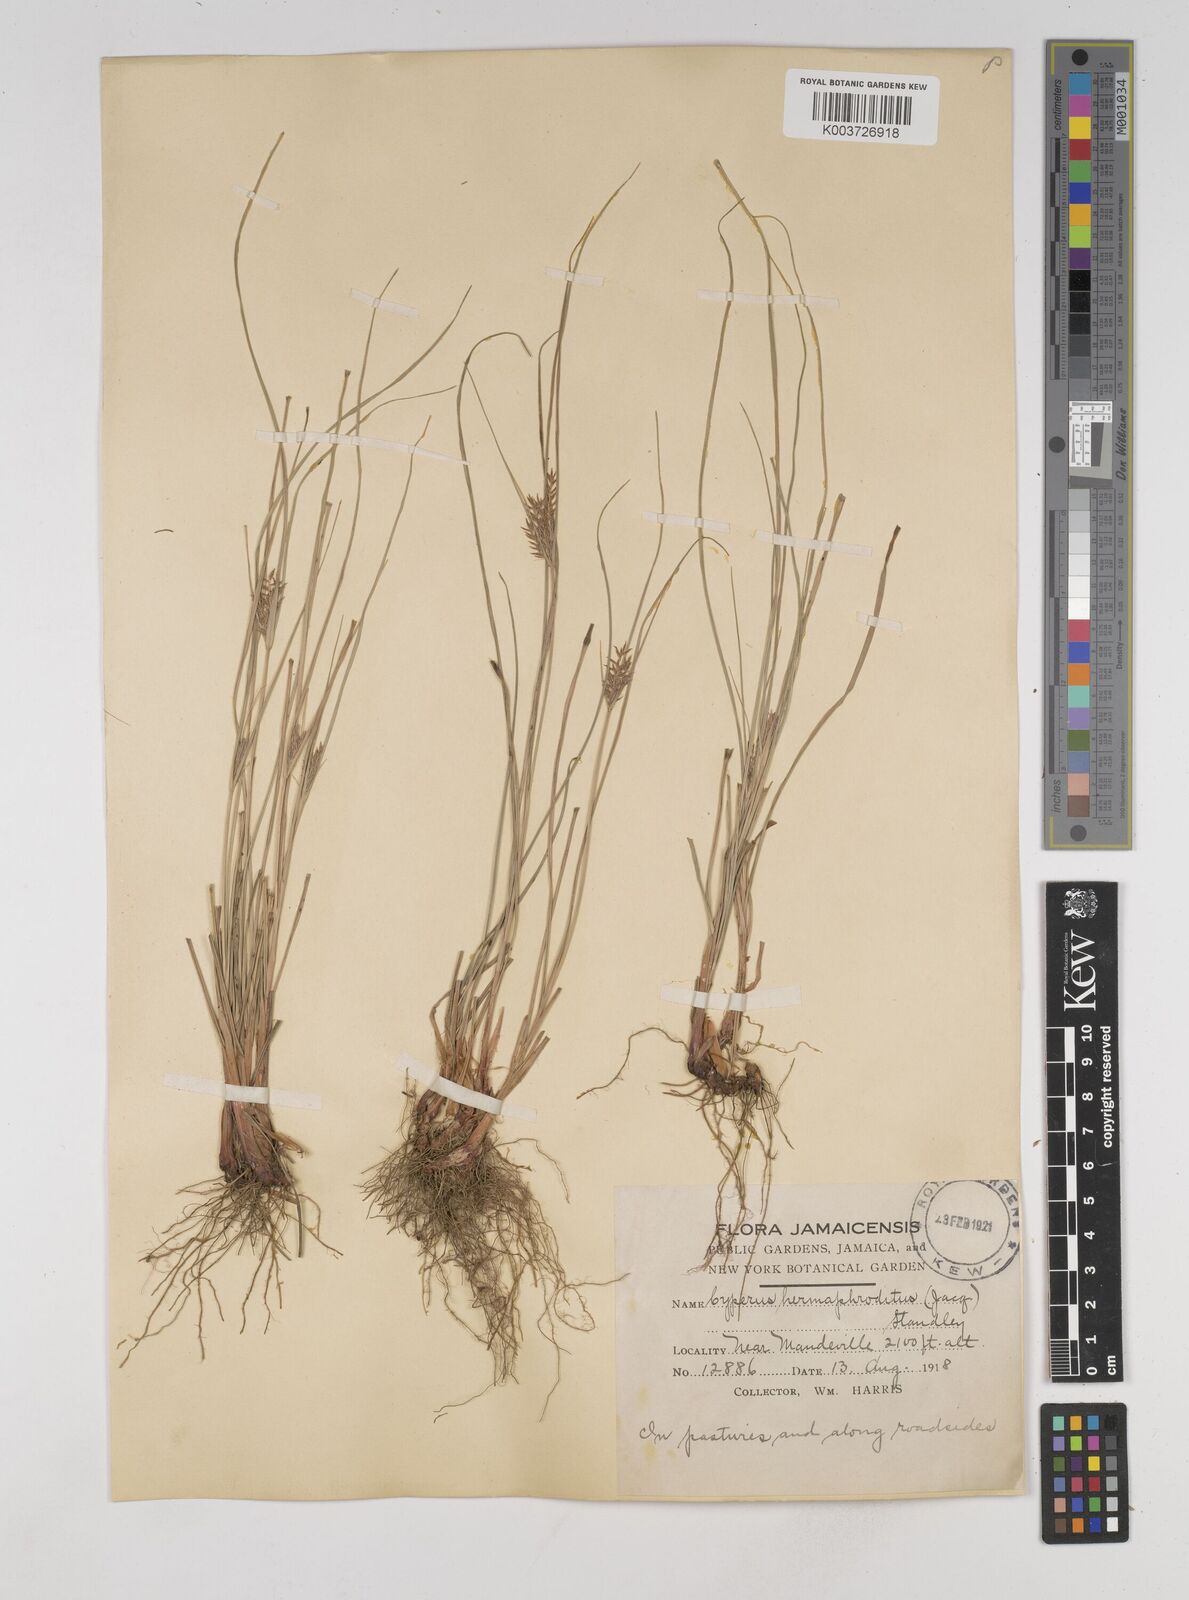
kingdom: Plantae
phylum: Tracheophyta
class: Liliopsida
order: Poales
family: Cyperaceae
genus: Cyperus
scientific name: Cyperus hermaphroditus
